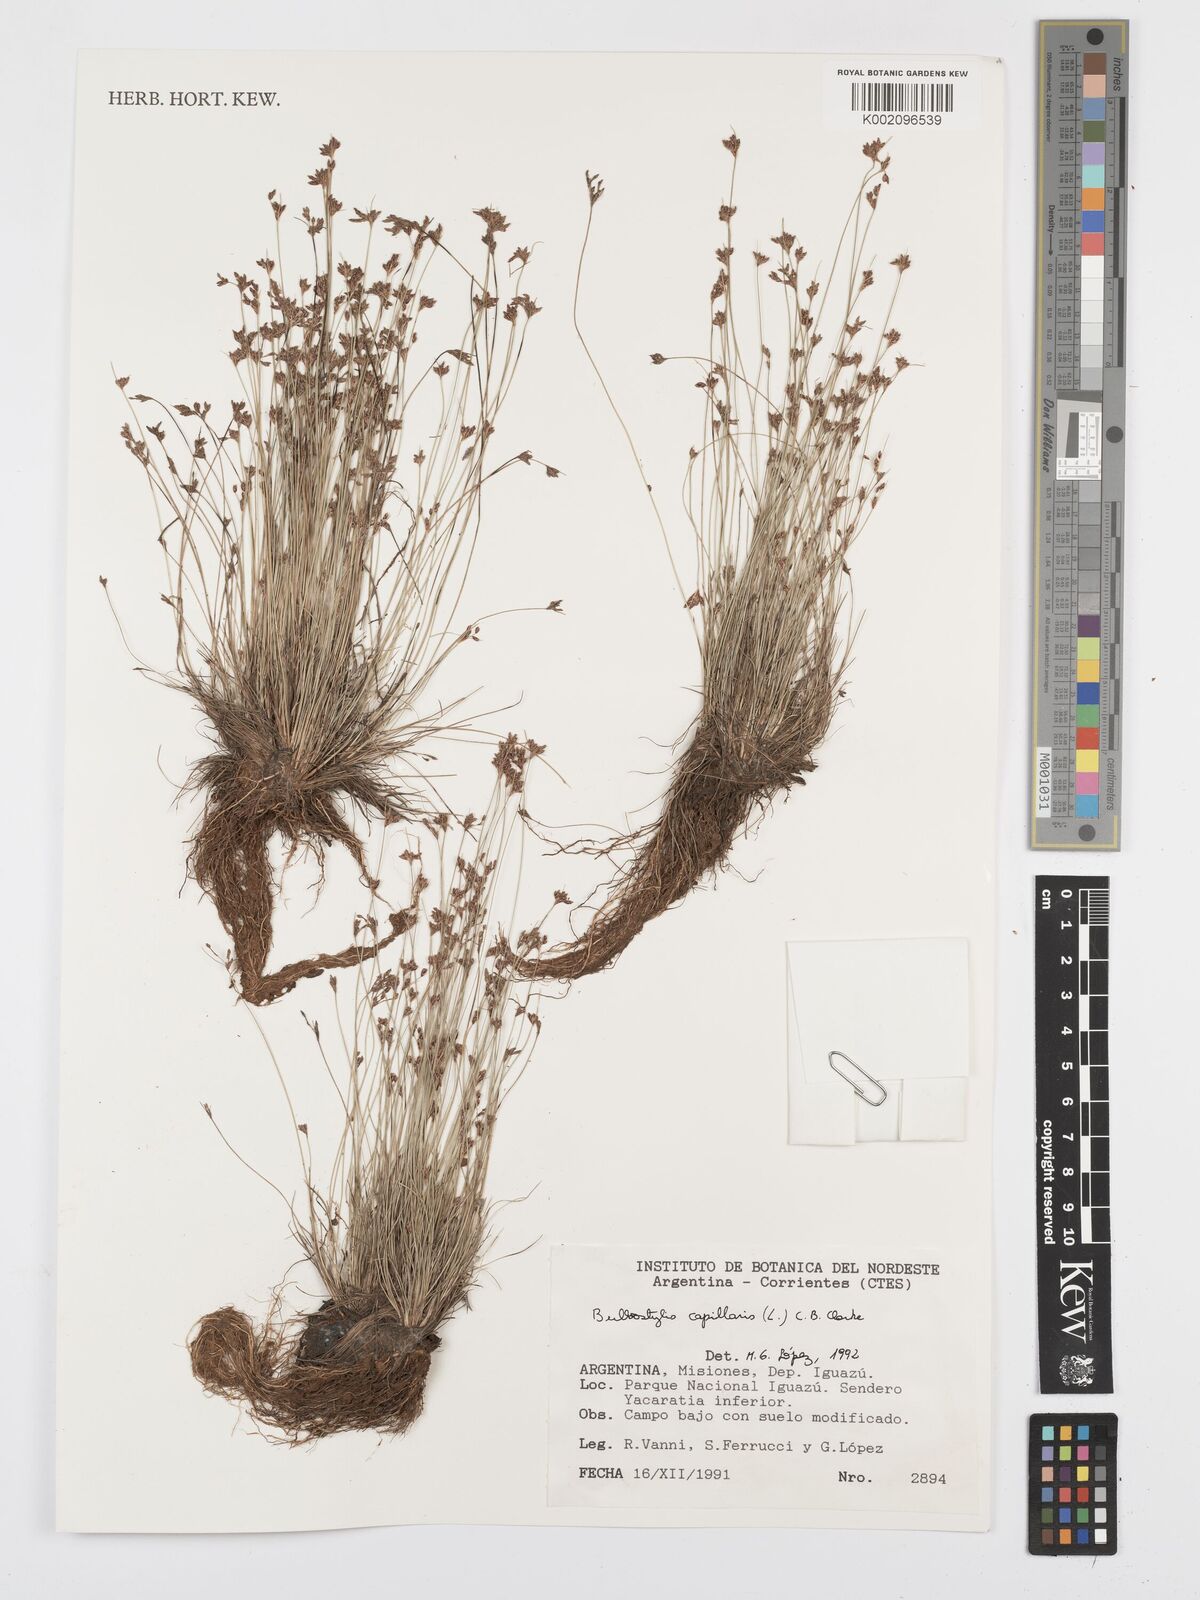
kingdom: Plantae
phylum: Tracheophyta
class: Liliopsida
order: Poales
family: Cyperaceae
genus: Bulbostylis
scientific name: Bulbostylis capillaris
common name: Densetuft hairsedge
